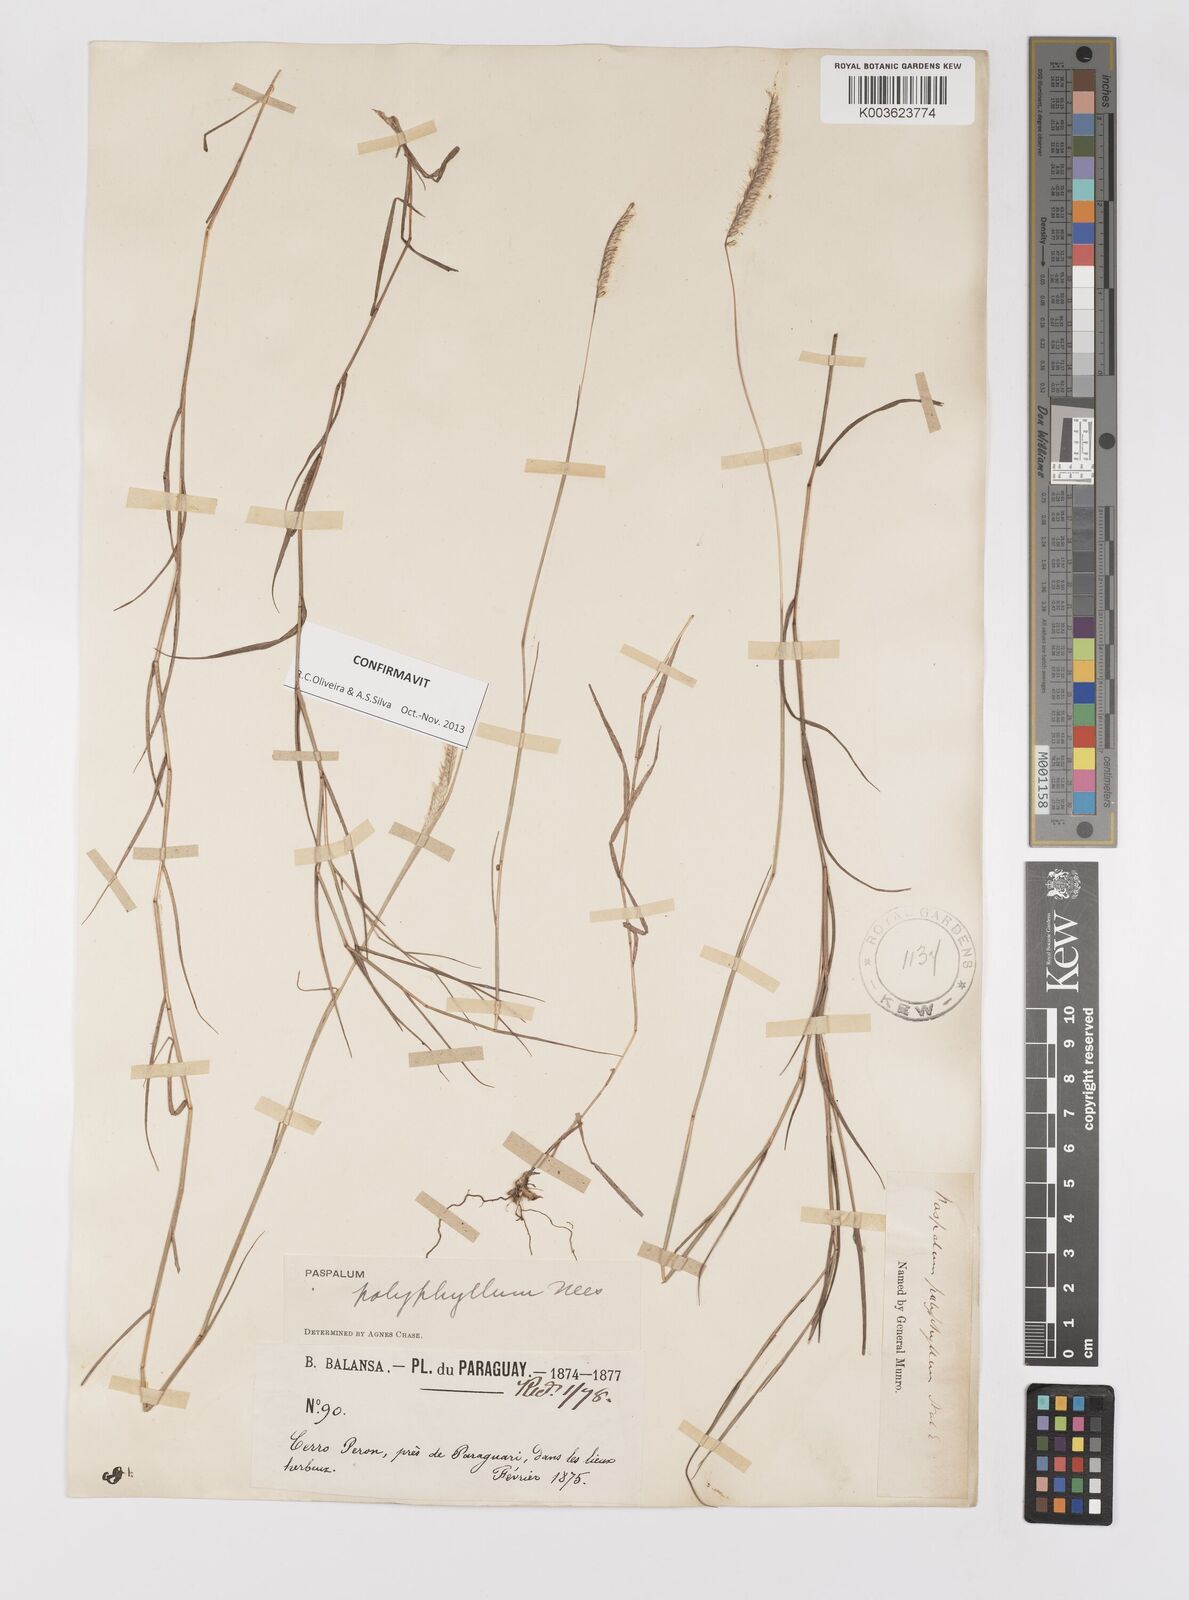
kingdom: Plantae
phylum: Tracheophyta
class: Liliopsida
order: Poales
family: Poaceae
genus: Paspalum
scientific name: Paspalum polyphyllum
